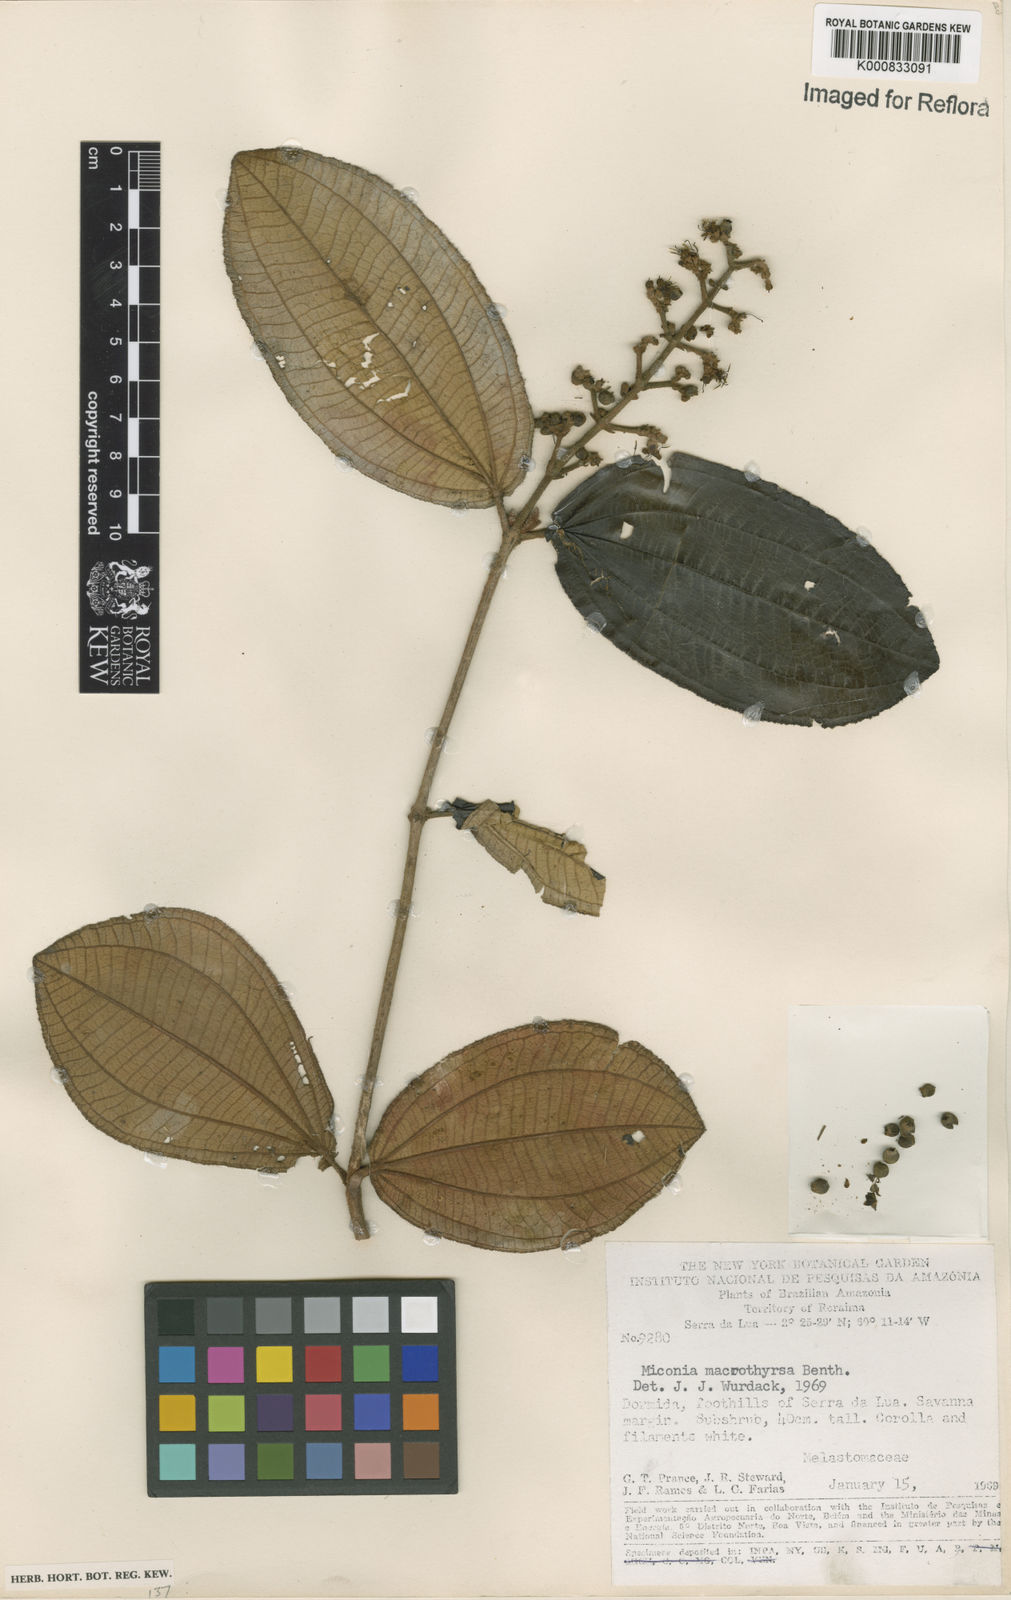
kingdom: Plantae
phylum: Tracheophyta
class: Magnoliopsida
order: Myrtales
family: Melastomataceae
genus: Miconia
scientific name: Miconia macrothyrsa
